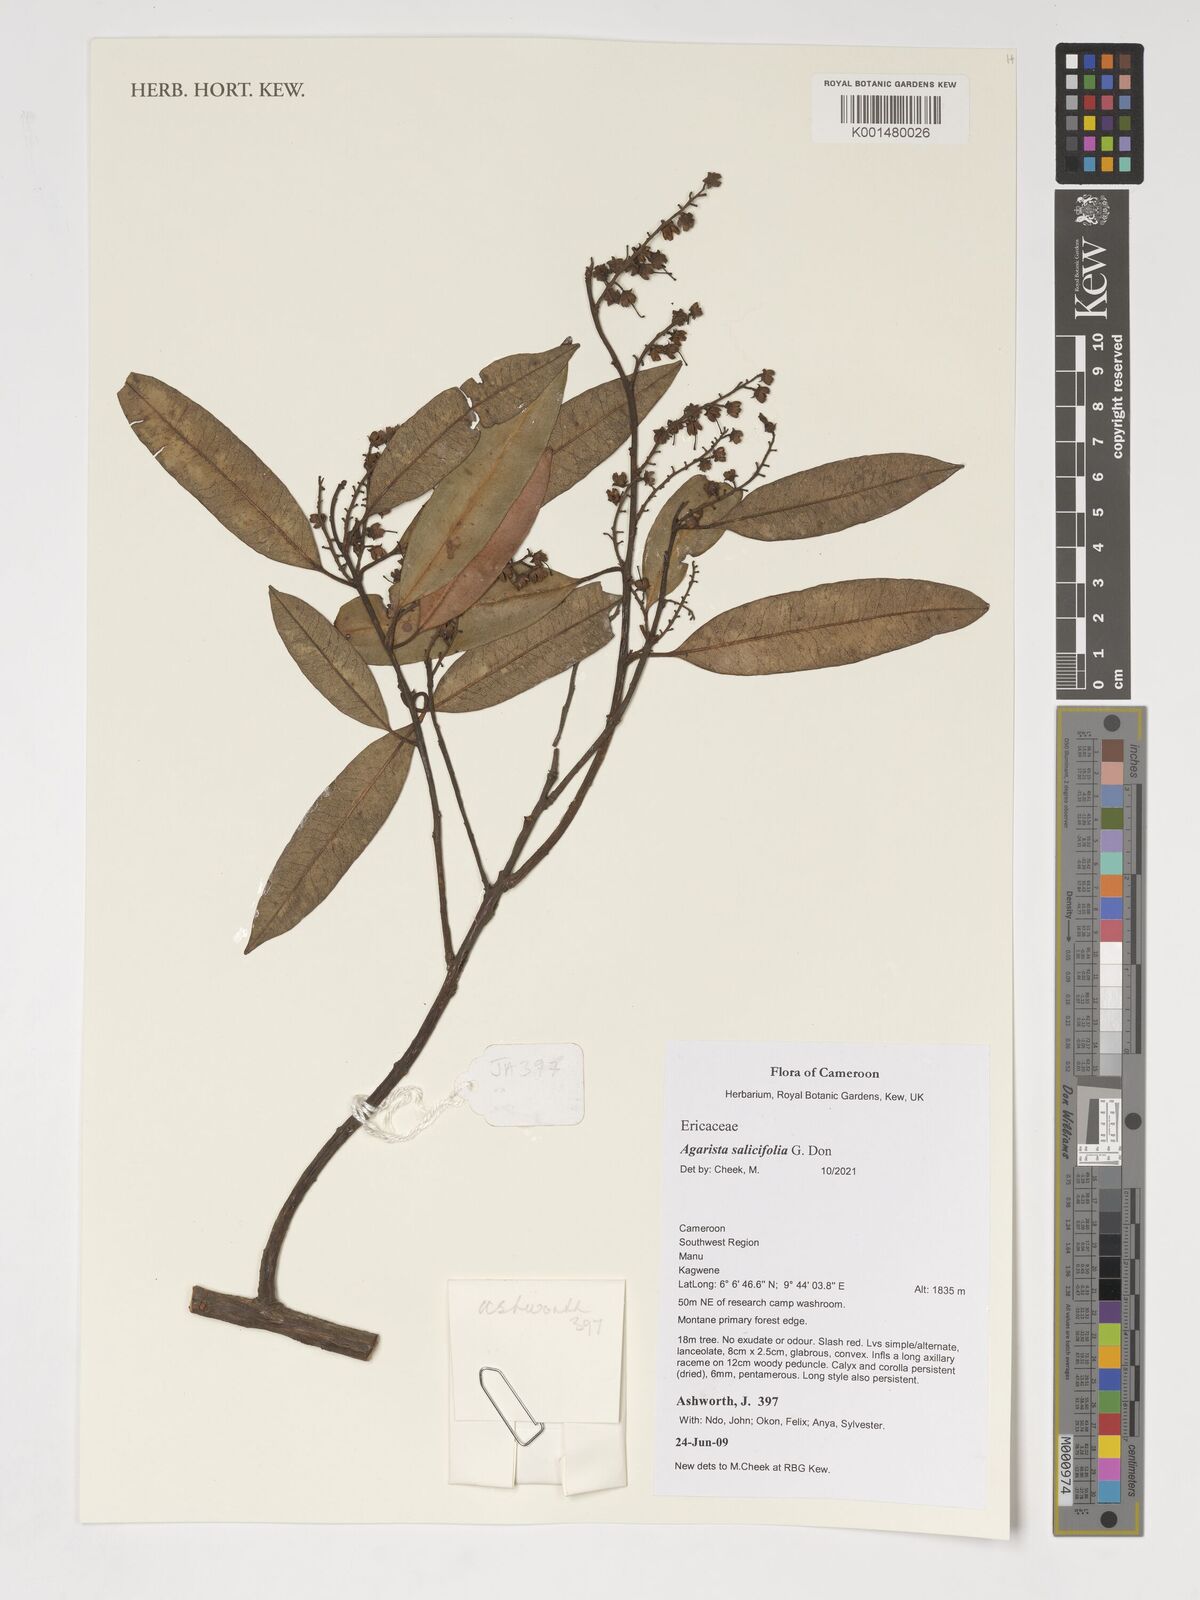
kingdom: Plantae
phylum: Tracheophyta
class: Magnoliopsida
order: Ericales
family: Ericaceae
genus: Agarista
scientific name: Agarista salicifolia
